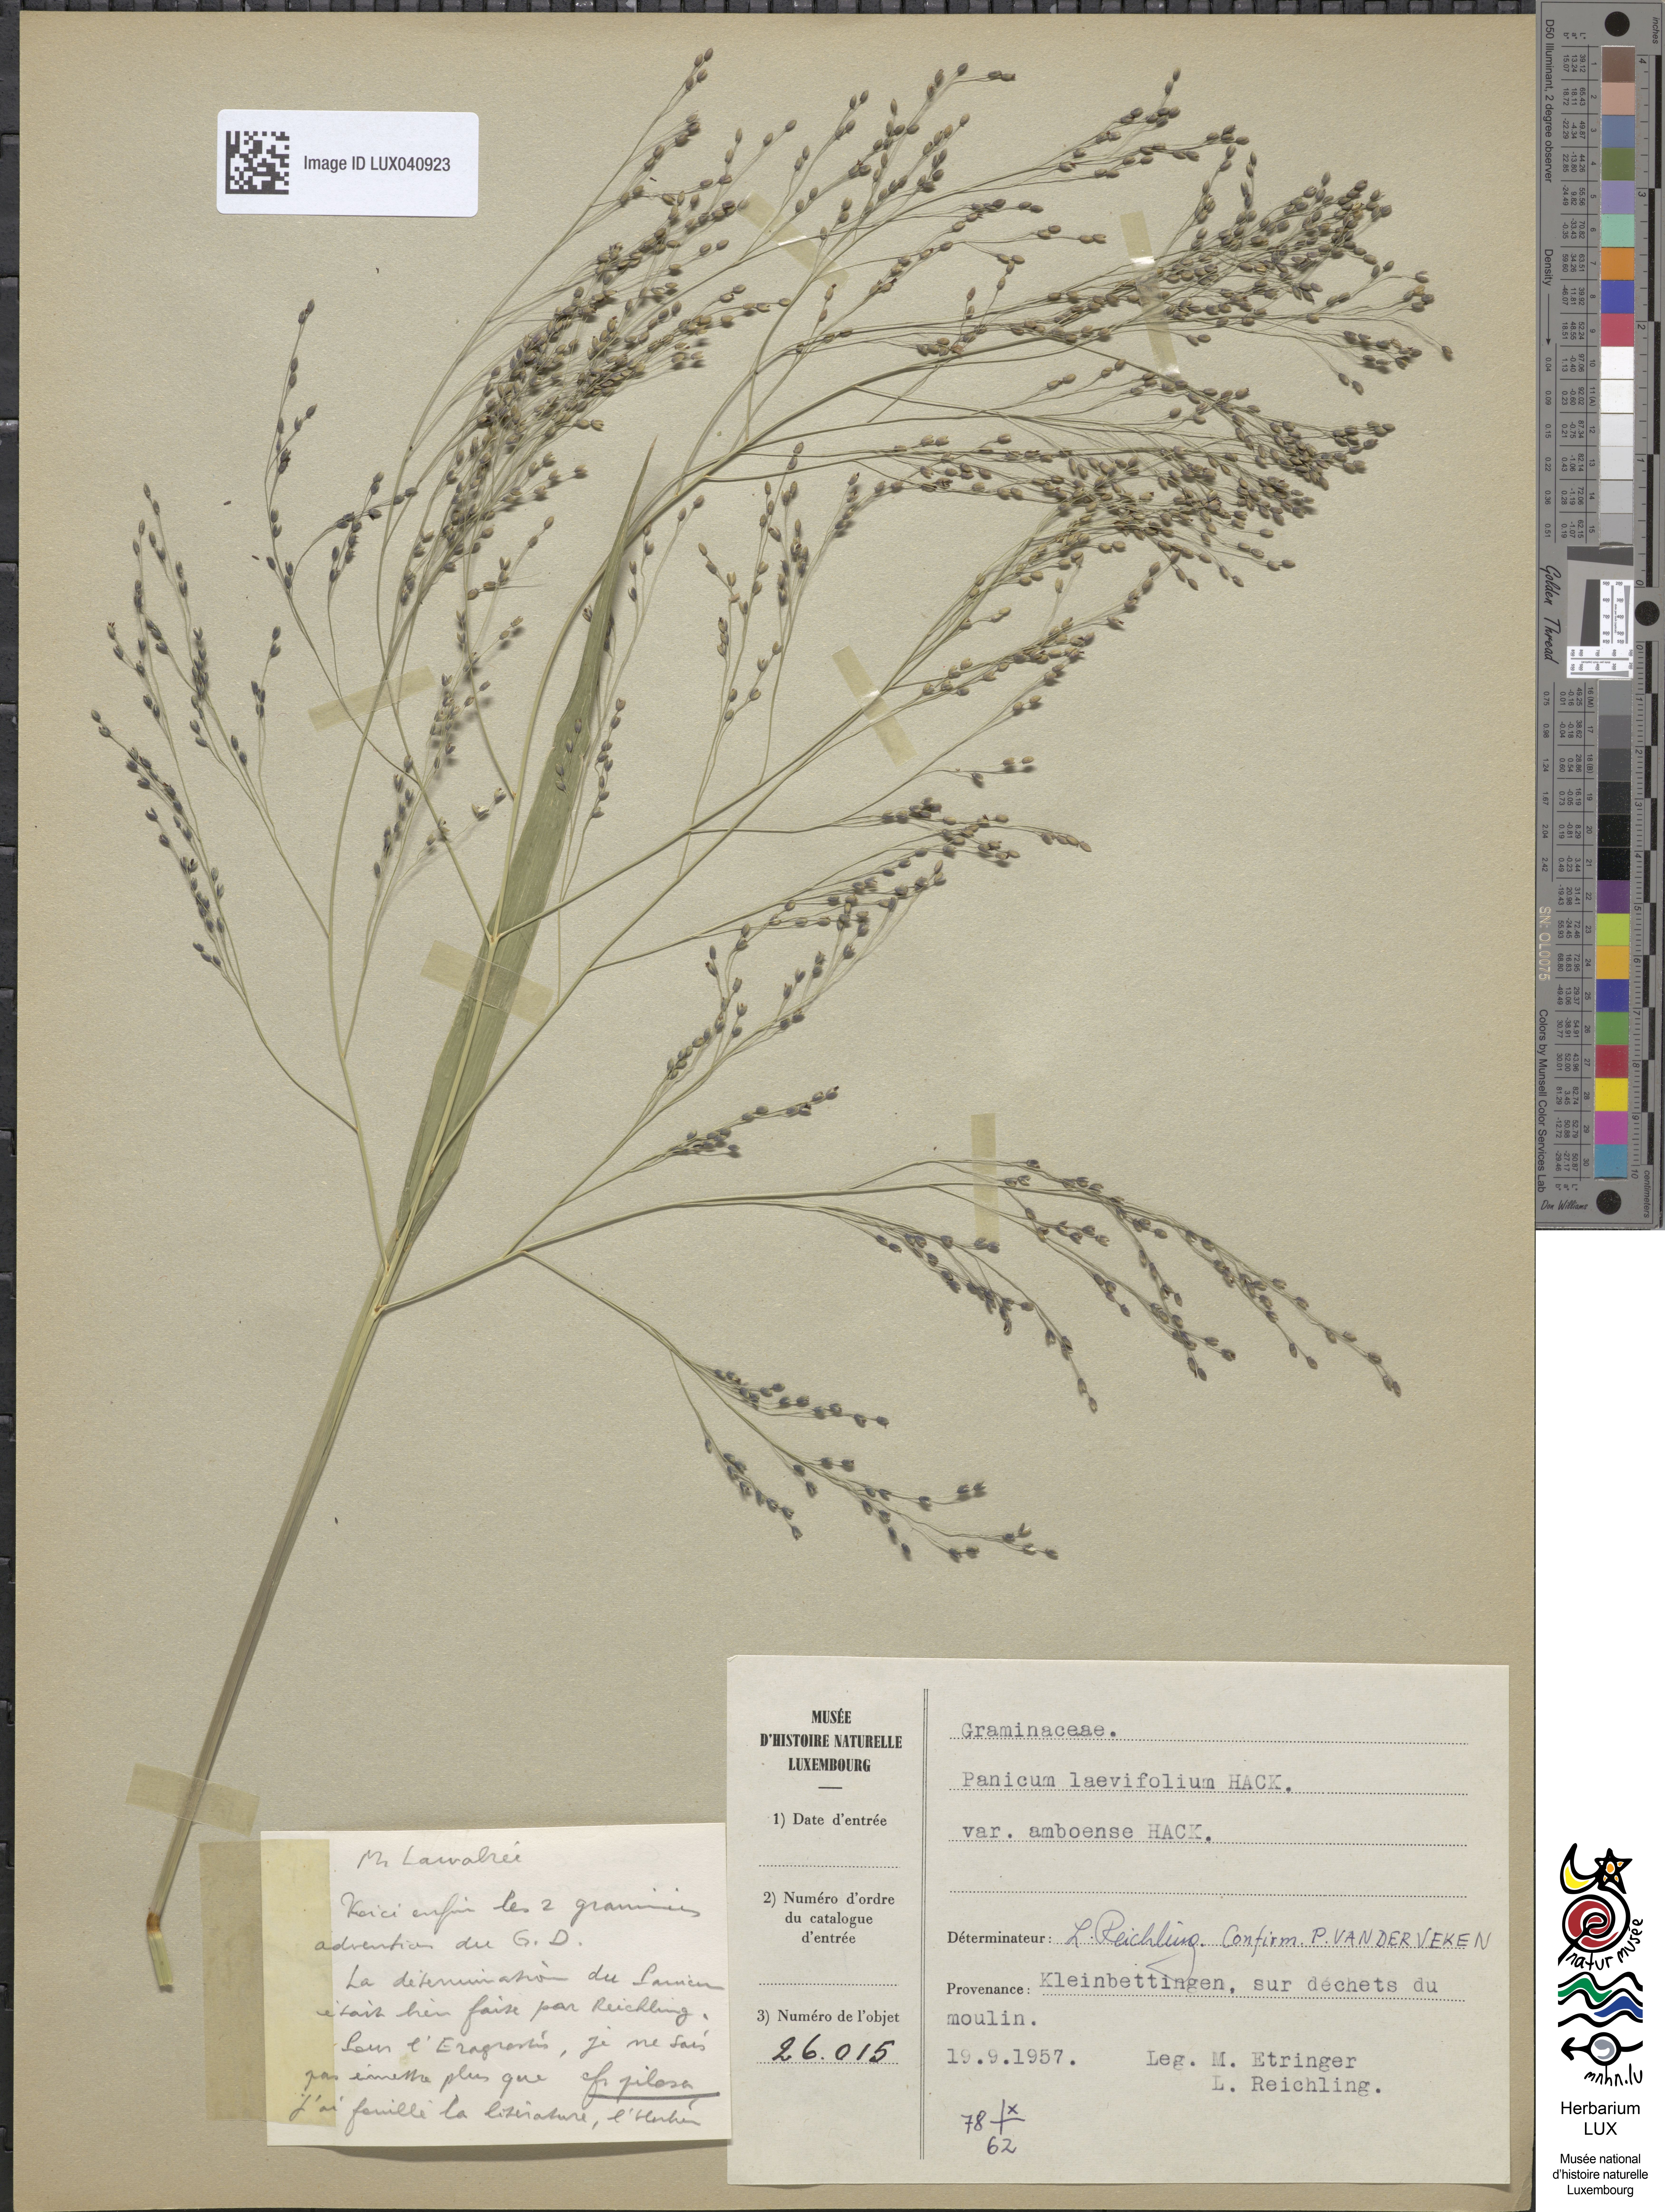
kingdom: Plantae
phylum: Tracheophyta
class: Liliopsida
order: Poales
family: Poaceae
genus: Panicum
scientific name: Panicum schinzii
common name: Sweet grass
